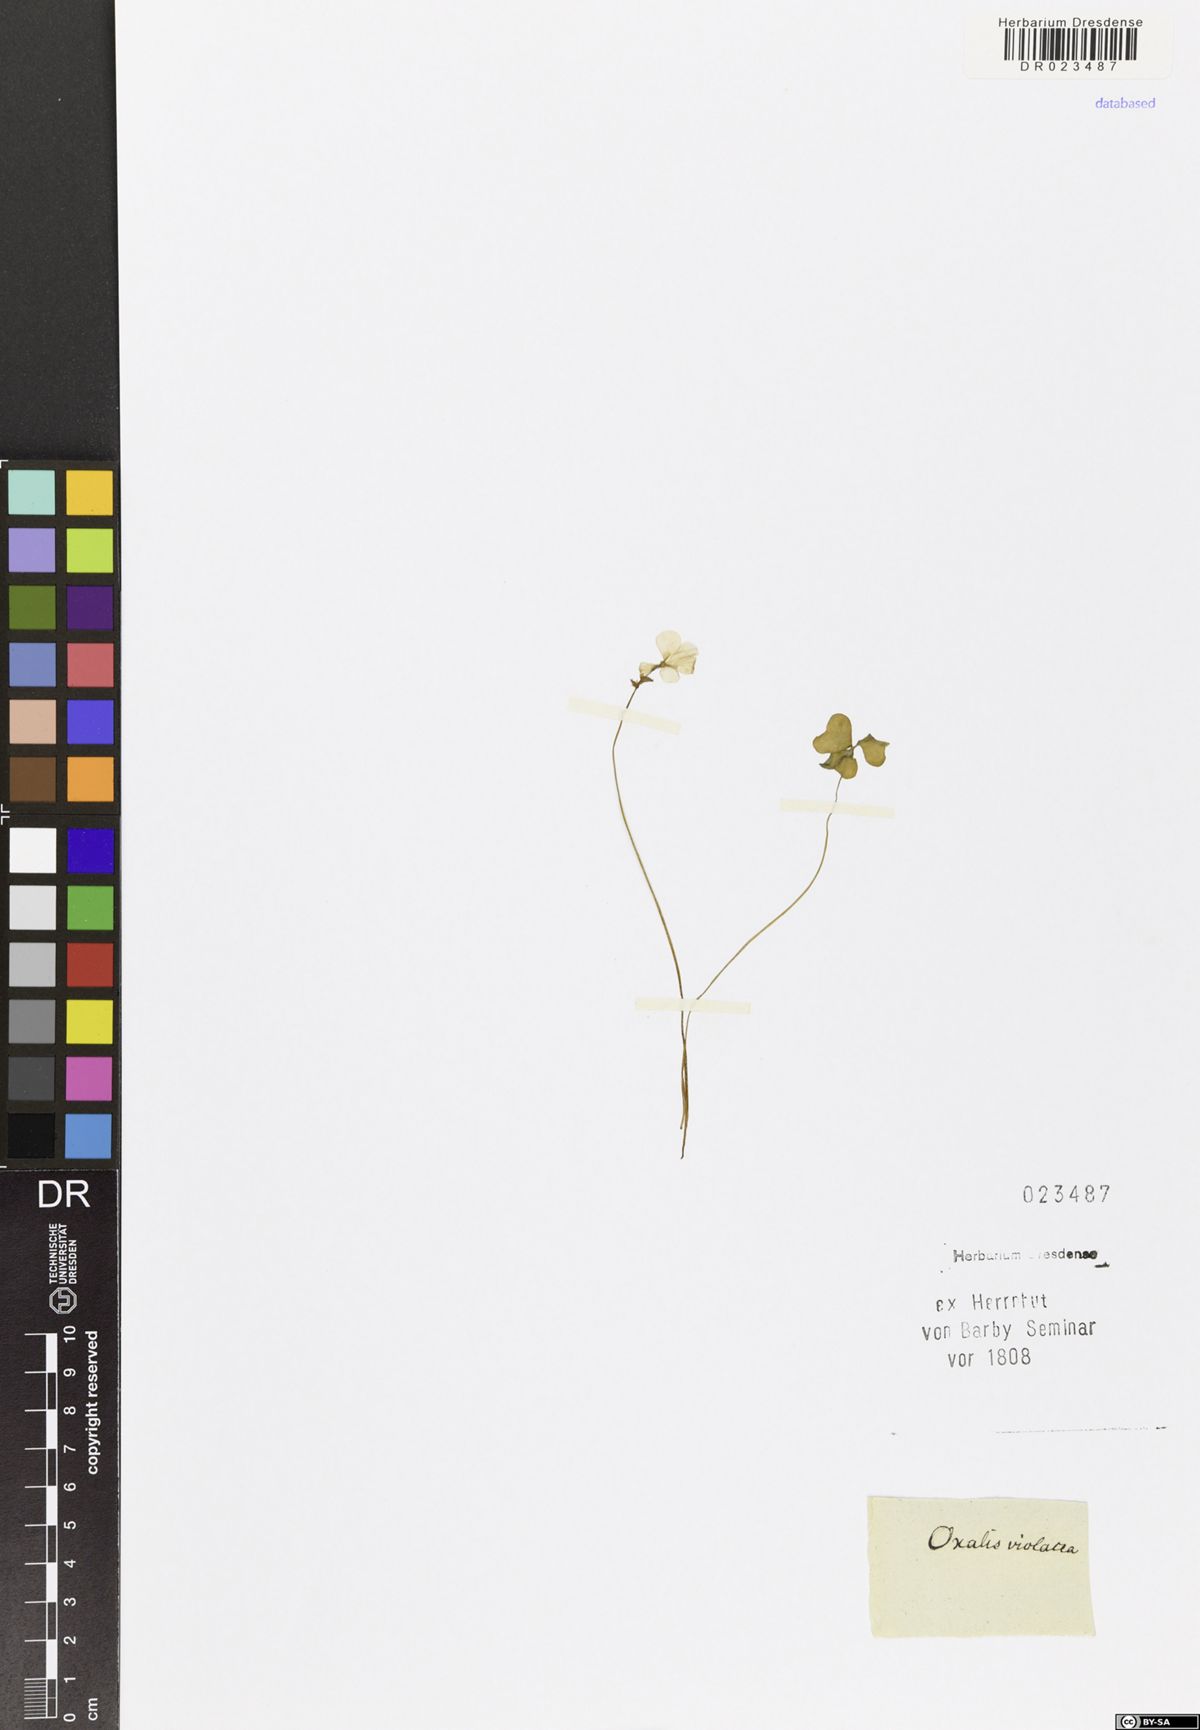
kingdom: Plantae
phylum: Tracheophyta
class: Magnoliopsida
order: Oxalidales
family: Oxalidaceae
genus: Oxalis
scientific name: Oxalis violacea
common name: Violet wood-sorrel
